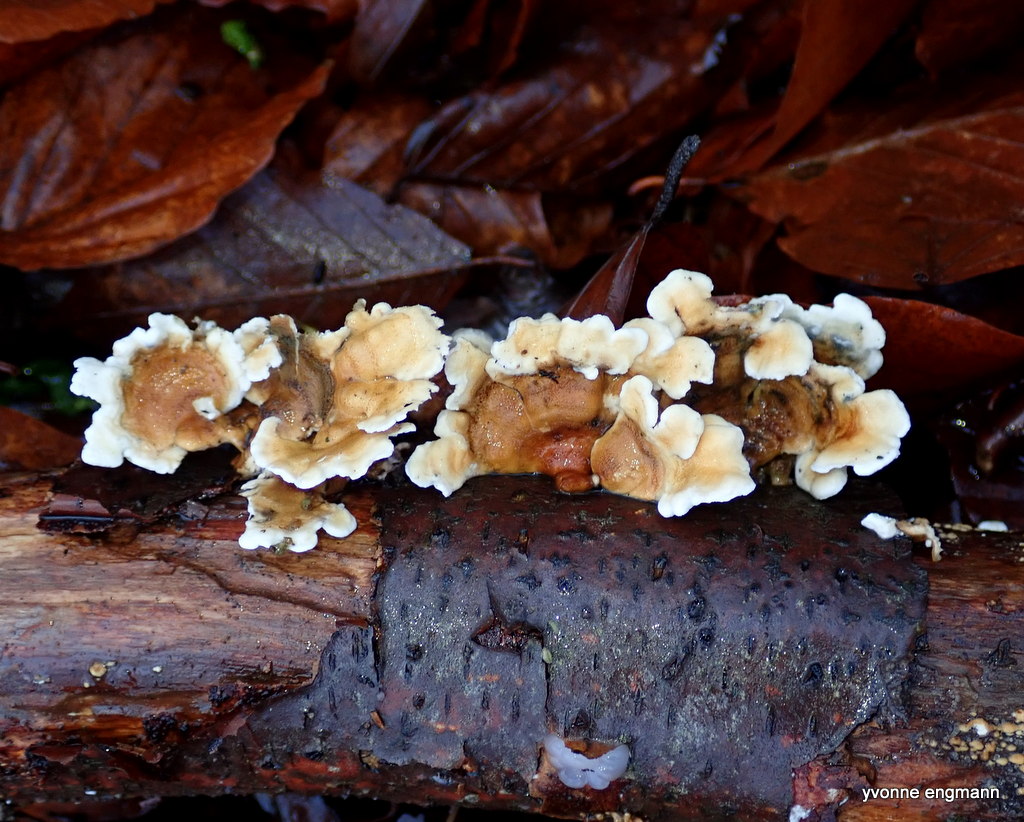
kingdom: Fungi
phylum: Basidiomycota
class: Agaricomycetes
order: Amylocorticiales
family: Amylocorticiaceae
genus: Plicaturopsis
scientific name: Plicaturopsis crispa
